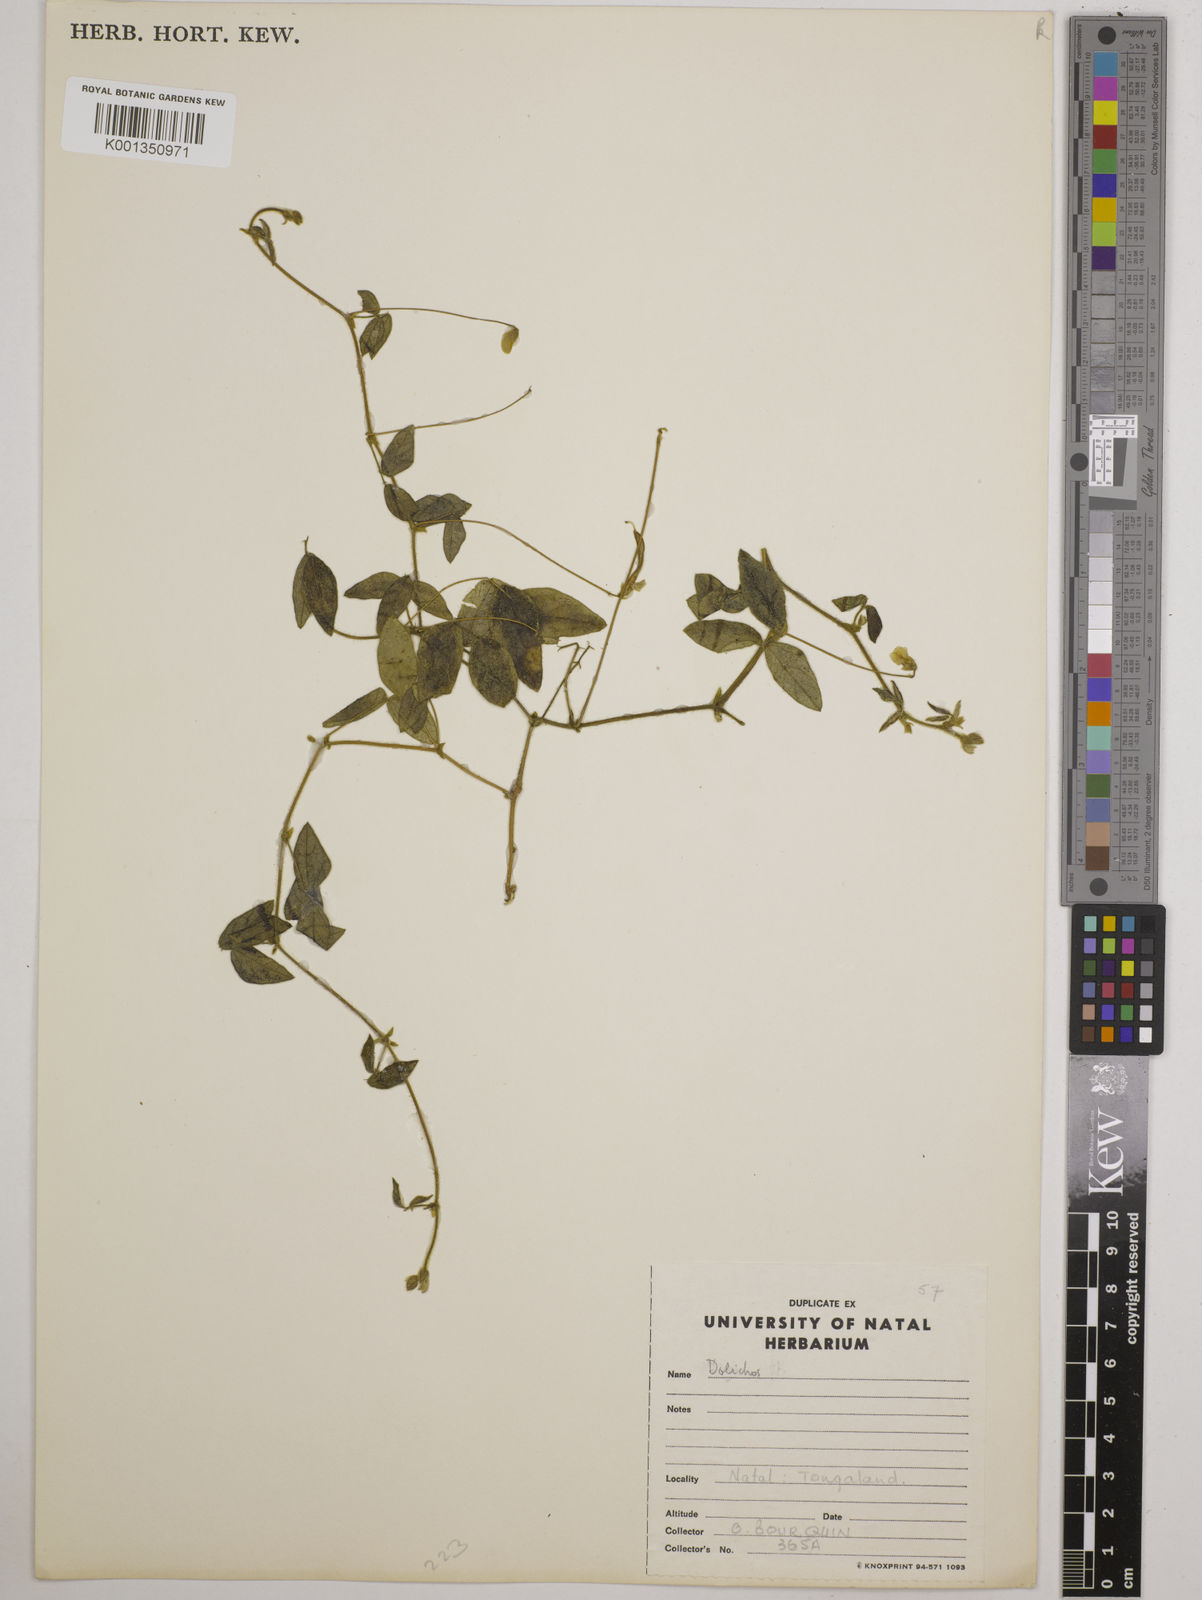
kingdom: Plantae
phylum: Tracheophyta
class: Magnoliopsida
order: Fabales
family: Fabaceae
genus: Dolichos
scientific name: Dolichos
